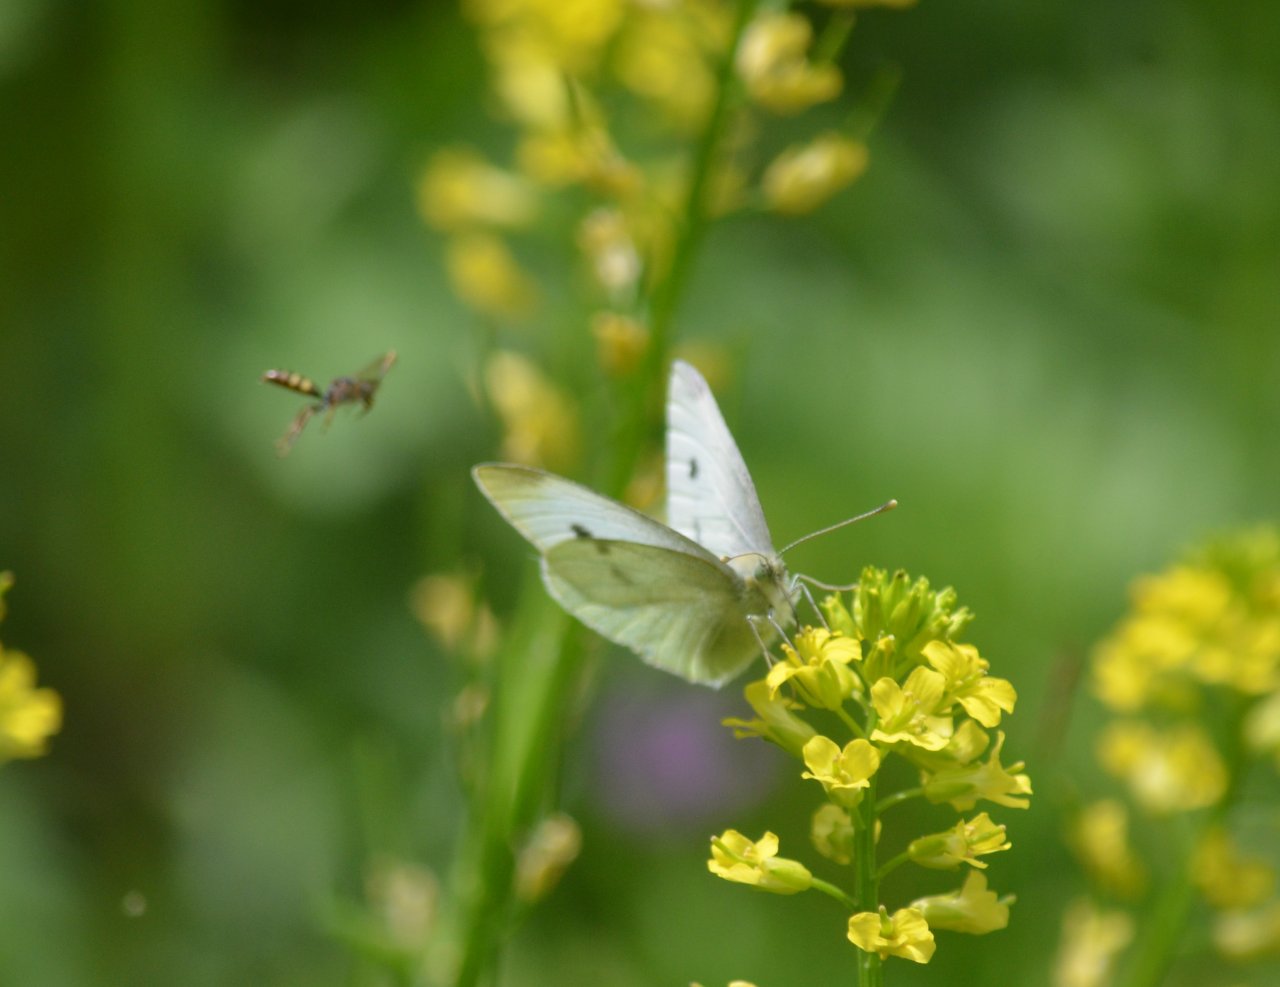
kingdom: Animalia
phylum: Arthropoda
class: Insecta
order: Lepidoptera
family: Pieridae
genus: Pieris
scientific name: Pieris rapae
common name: Cabbage White
